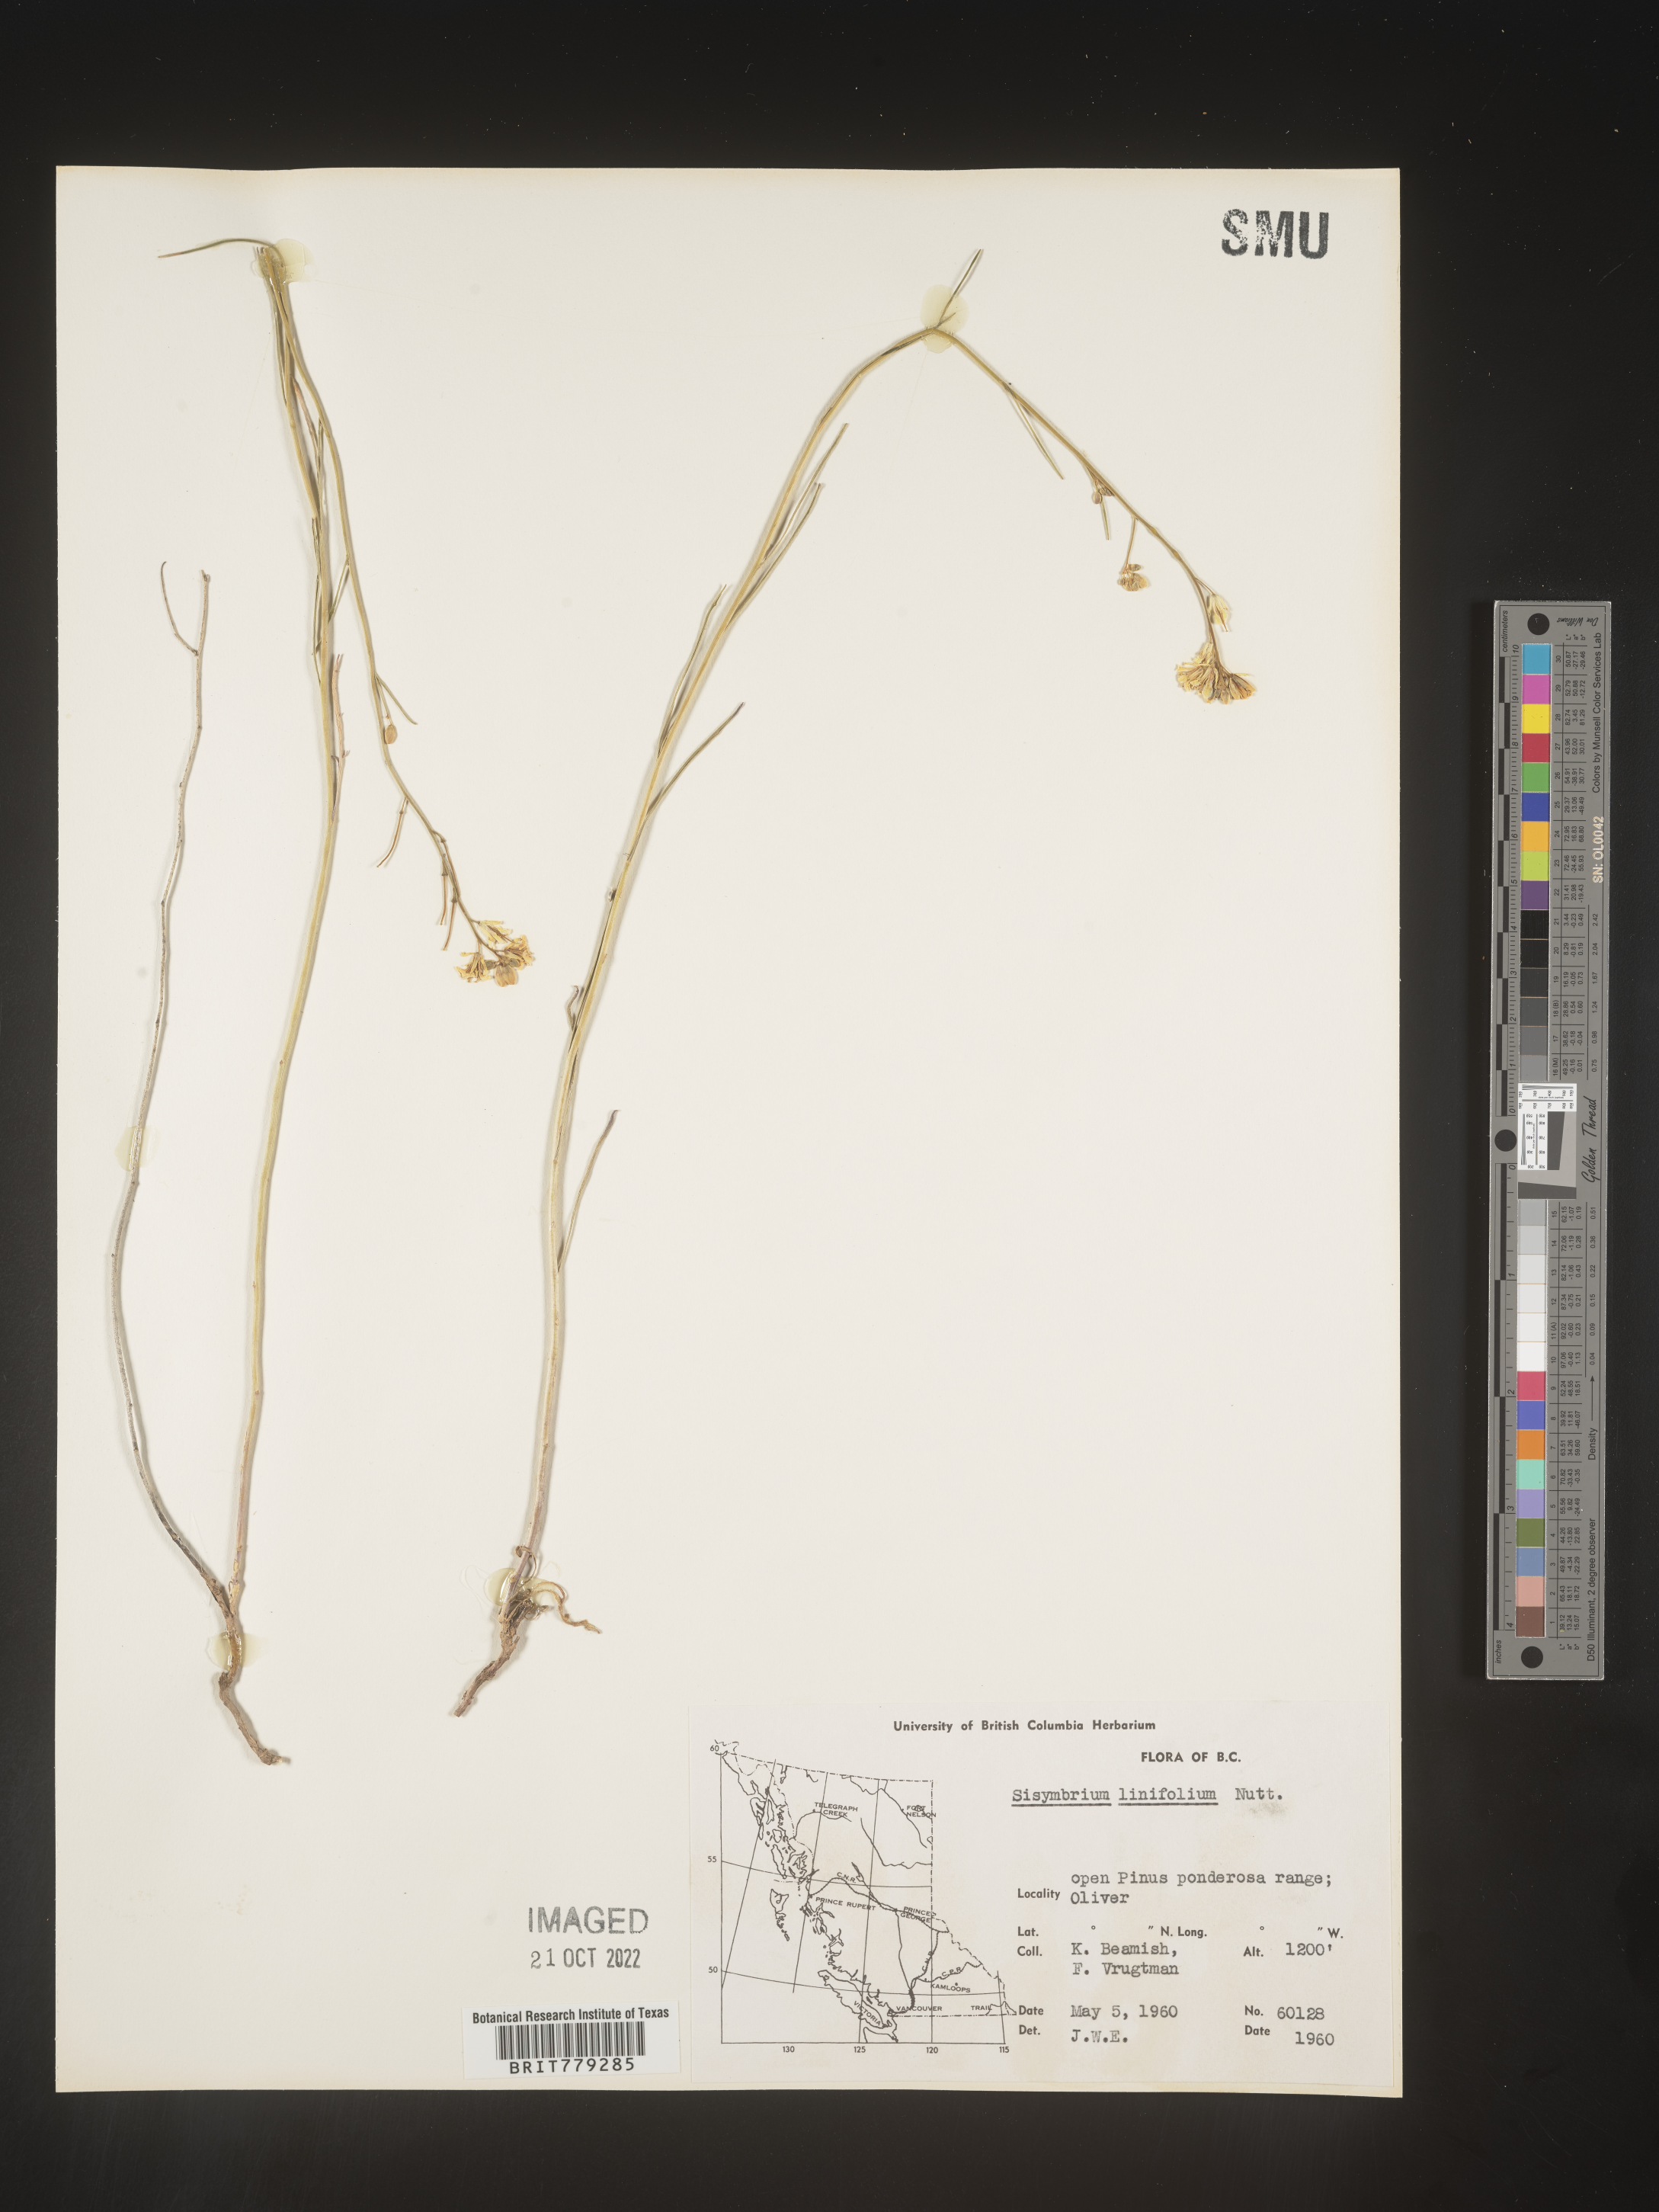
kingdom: Plantae
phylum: Tracheophyta
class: Magnoliopsida
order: Brassicales
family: Brassicaceae
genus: Sisymbrium
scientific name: Sisymbrium
